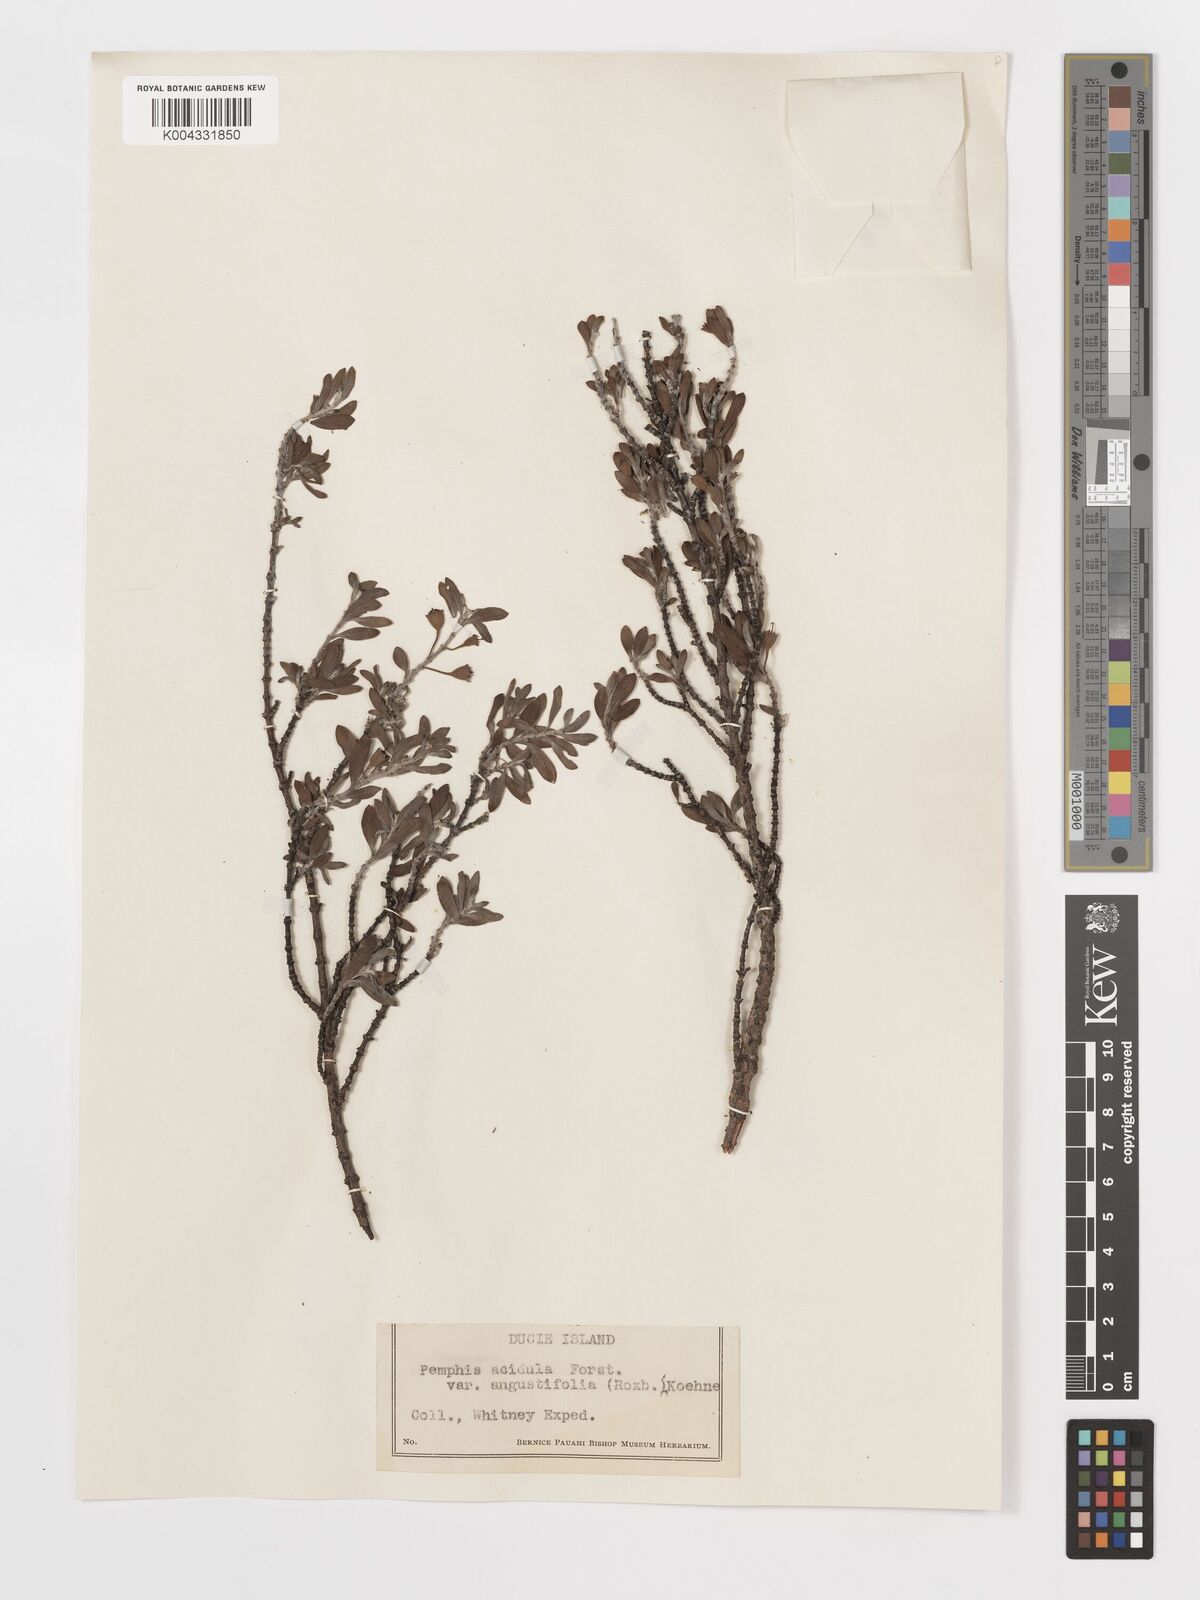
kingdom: Plantae
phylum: Tracheophyta
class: Magnoliopsida
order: Myrtales
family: Lythraceae
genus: Pemphis
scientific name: Pemphis acidula
